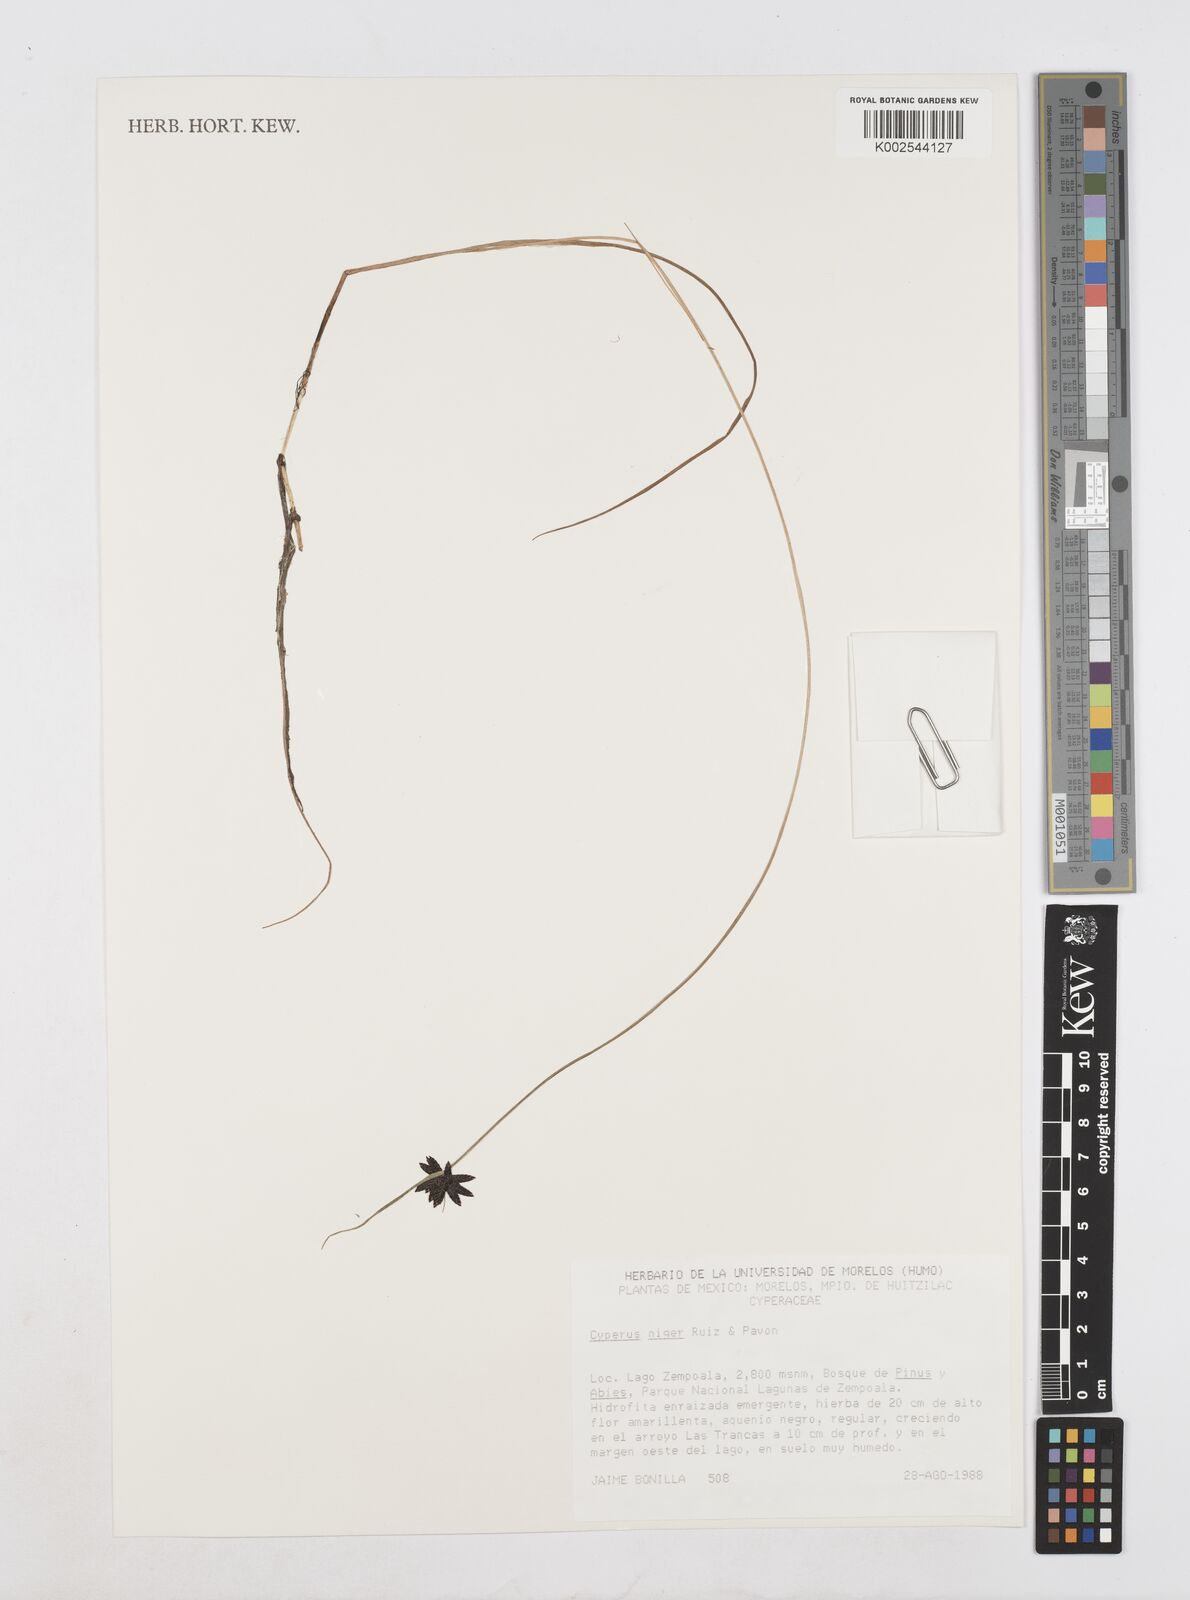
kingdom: Plantae
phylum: Tracheophyta
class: Liliopsida
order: Poales
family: Cyperaceae
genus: Cyperus
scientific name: Cyperus melanostachyus
